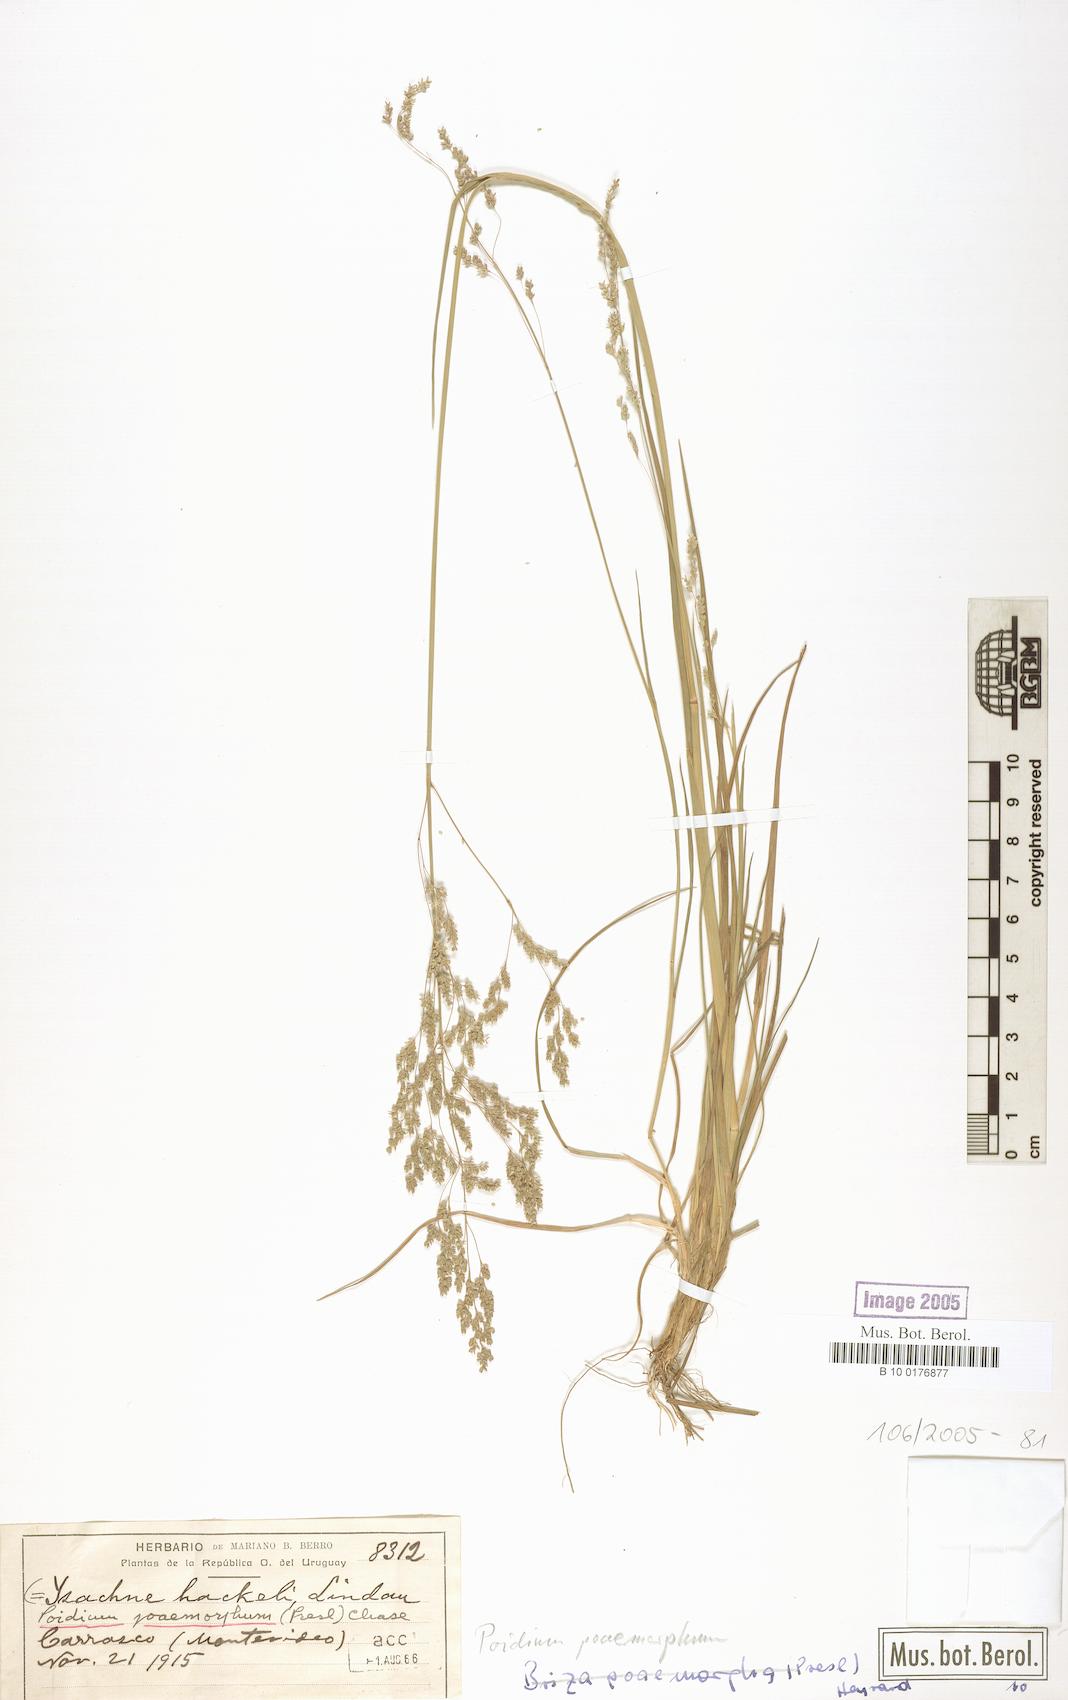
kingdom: Plantae
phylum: Tracheophyta
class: Liliopsida
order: Poales
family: Poaceae
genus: Chascolytrum
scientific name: Chascolytrum poomorphum
